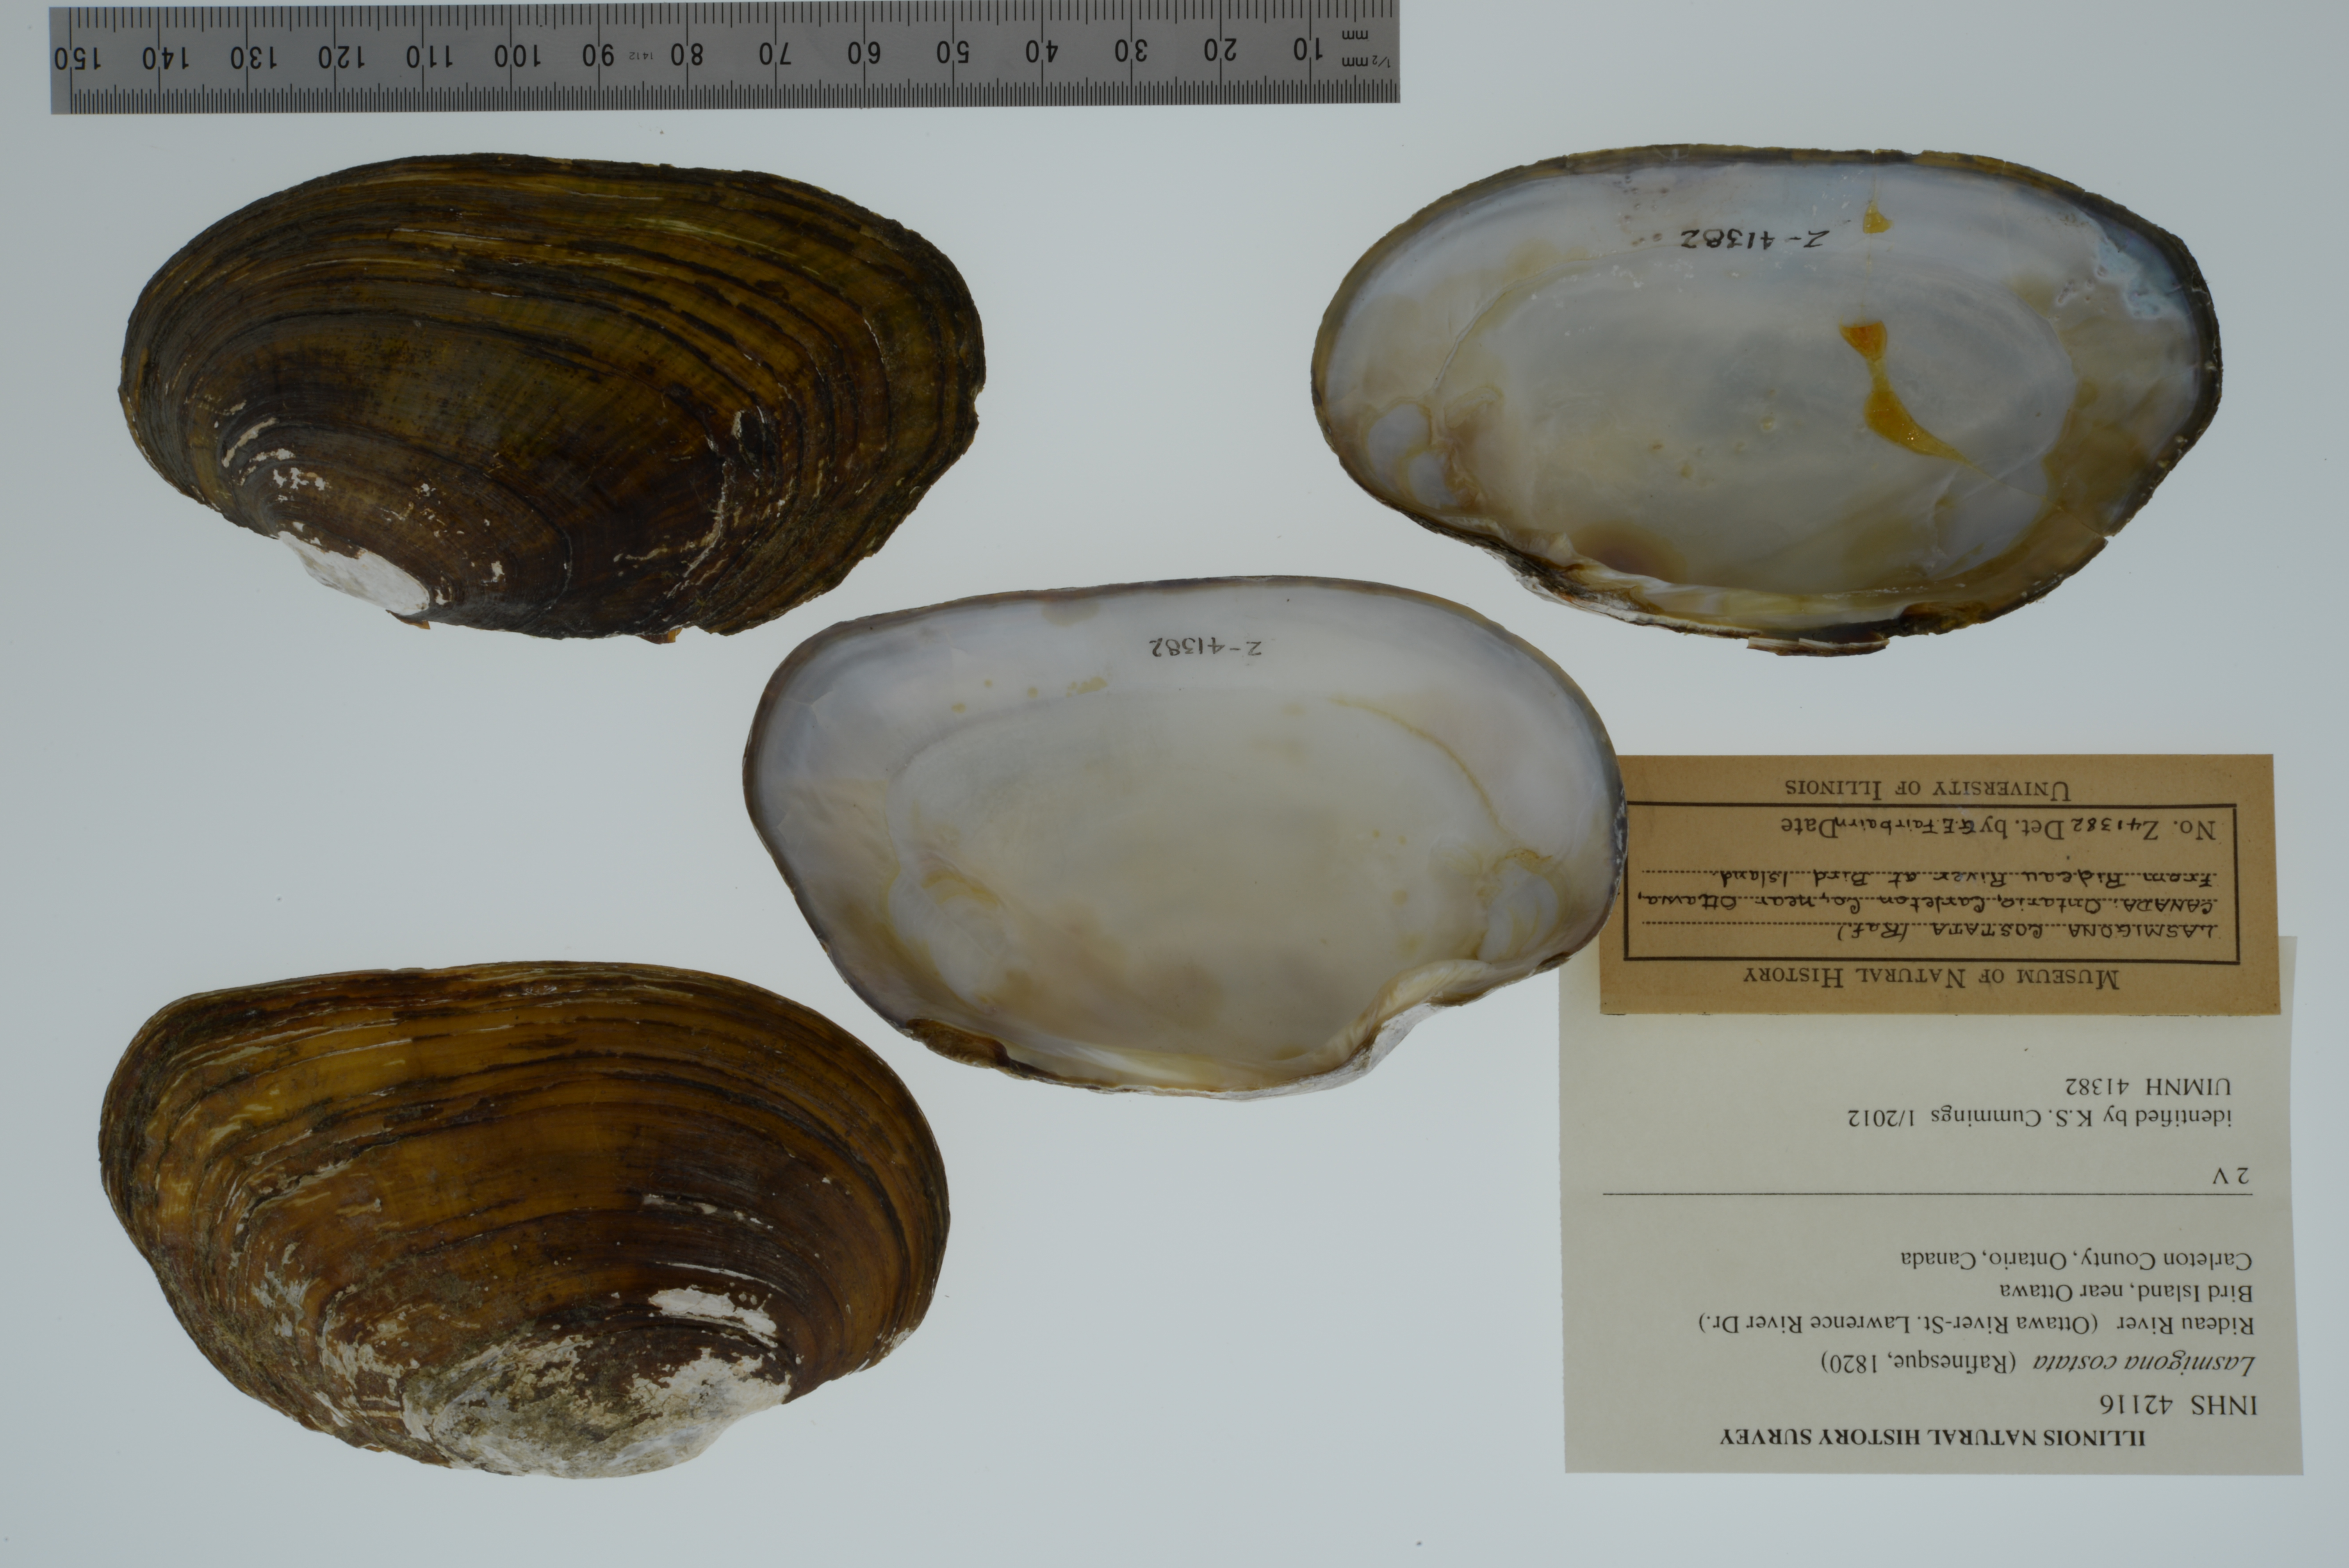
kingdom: Animalia
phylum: Mollusca
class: Bivalvia
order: Unionida
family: Unionidae
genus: Lasmigona
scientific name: Lasmigona costata
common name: Flutedshell
